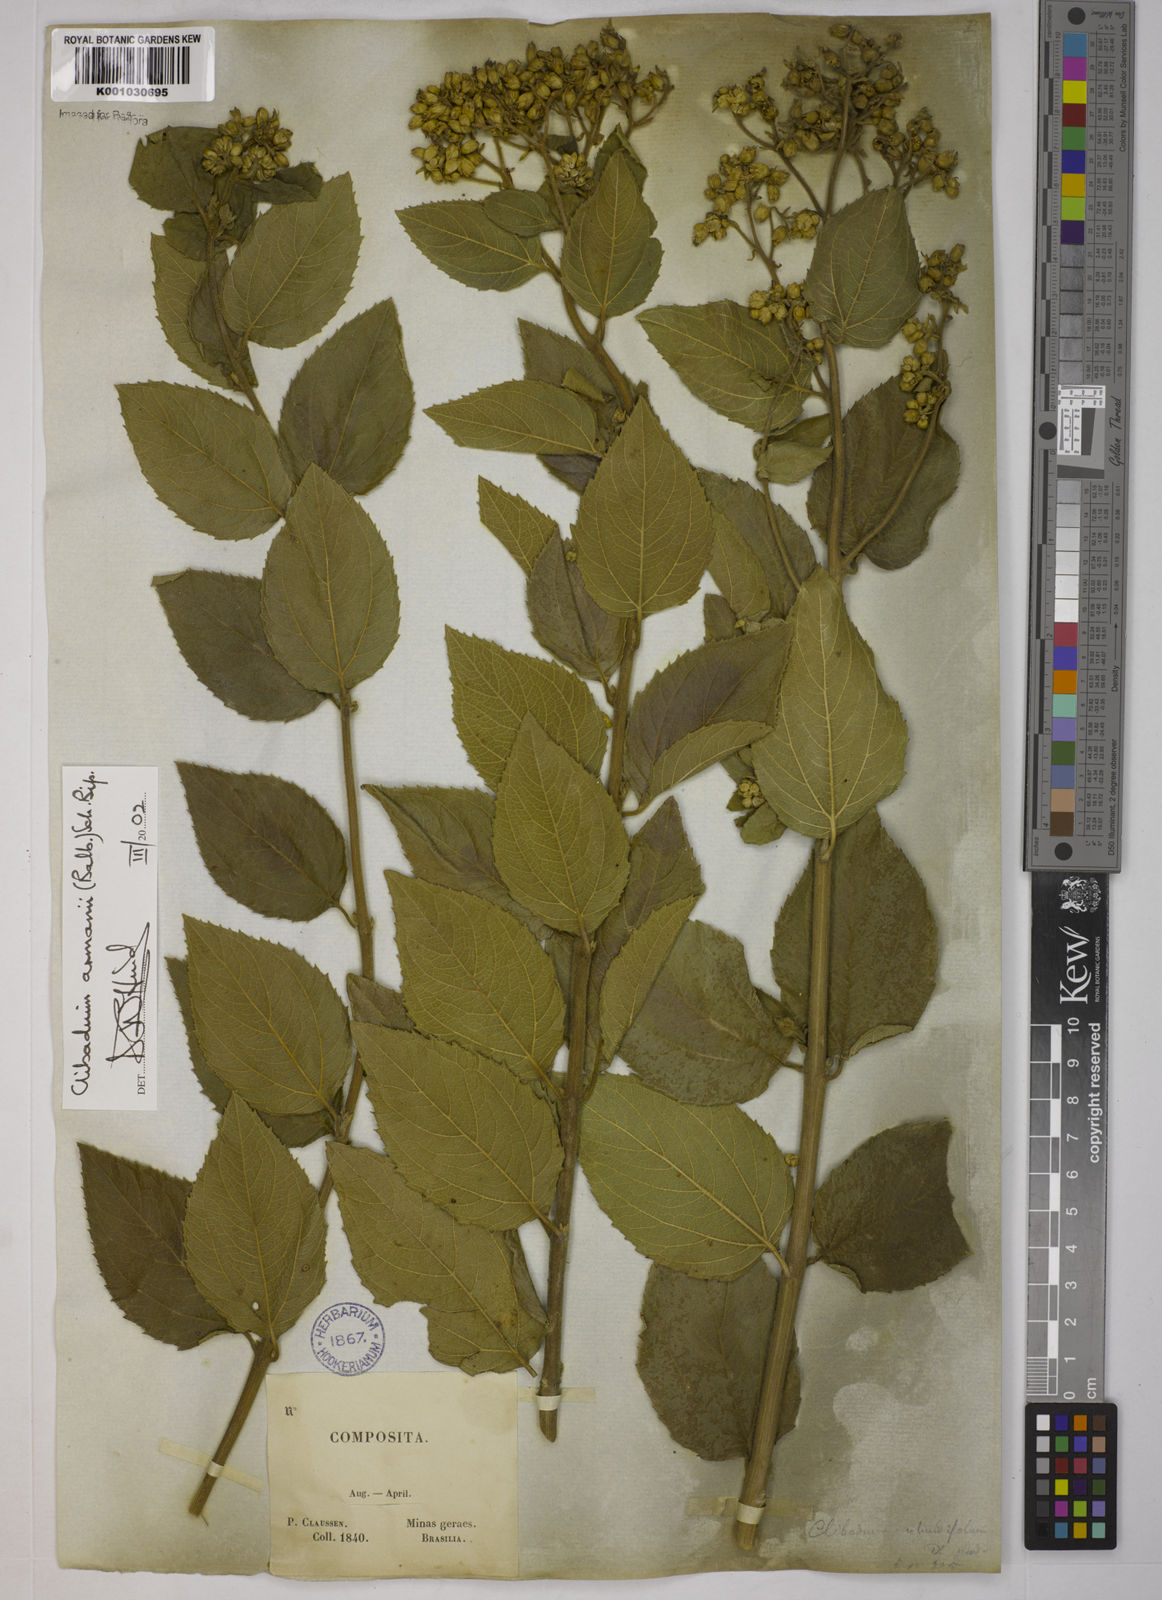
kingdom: Plantae
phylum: Tracheophyta
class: Magnoliopsida
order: Asterales
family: Asteraceae
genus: Clibadium
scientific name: Clibadium armanii
